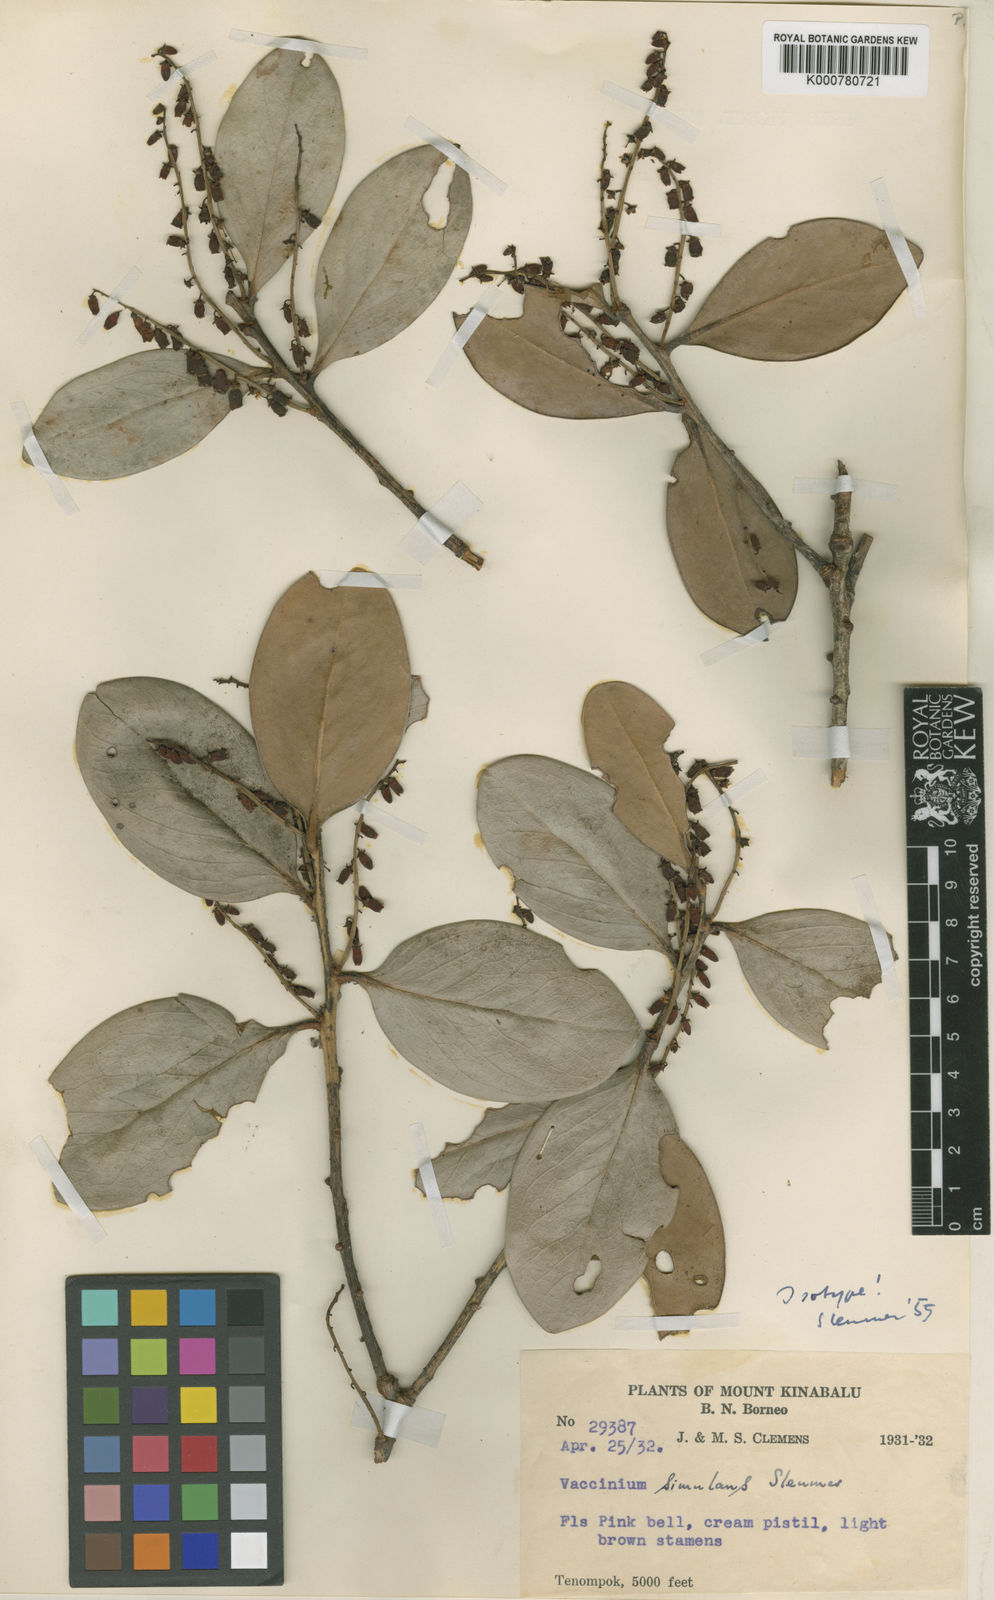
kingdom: Plantae
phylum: Tracheophyta
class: Magnoliopsida
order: Ericales
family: Ericaceae
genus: Vaccinium
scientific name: Vaccinium simulans
